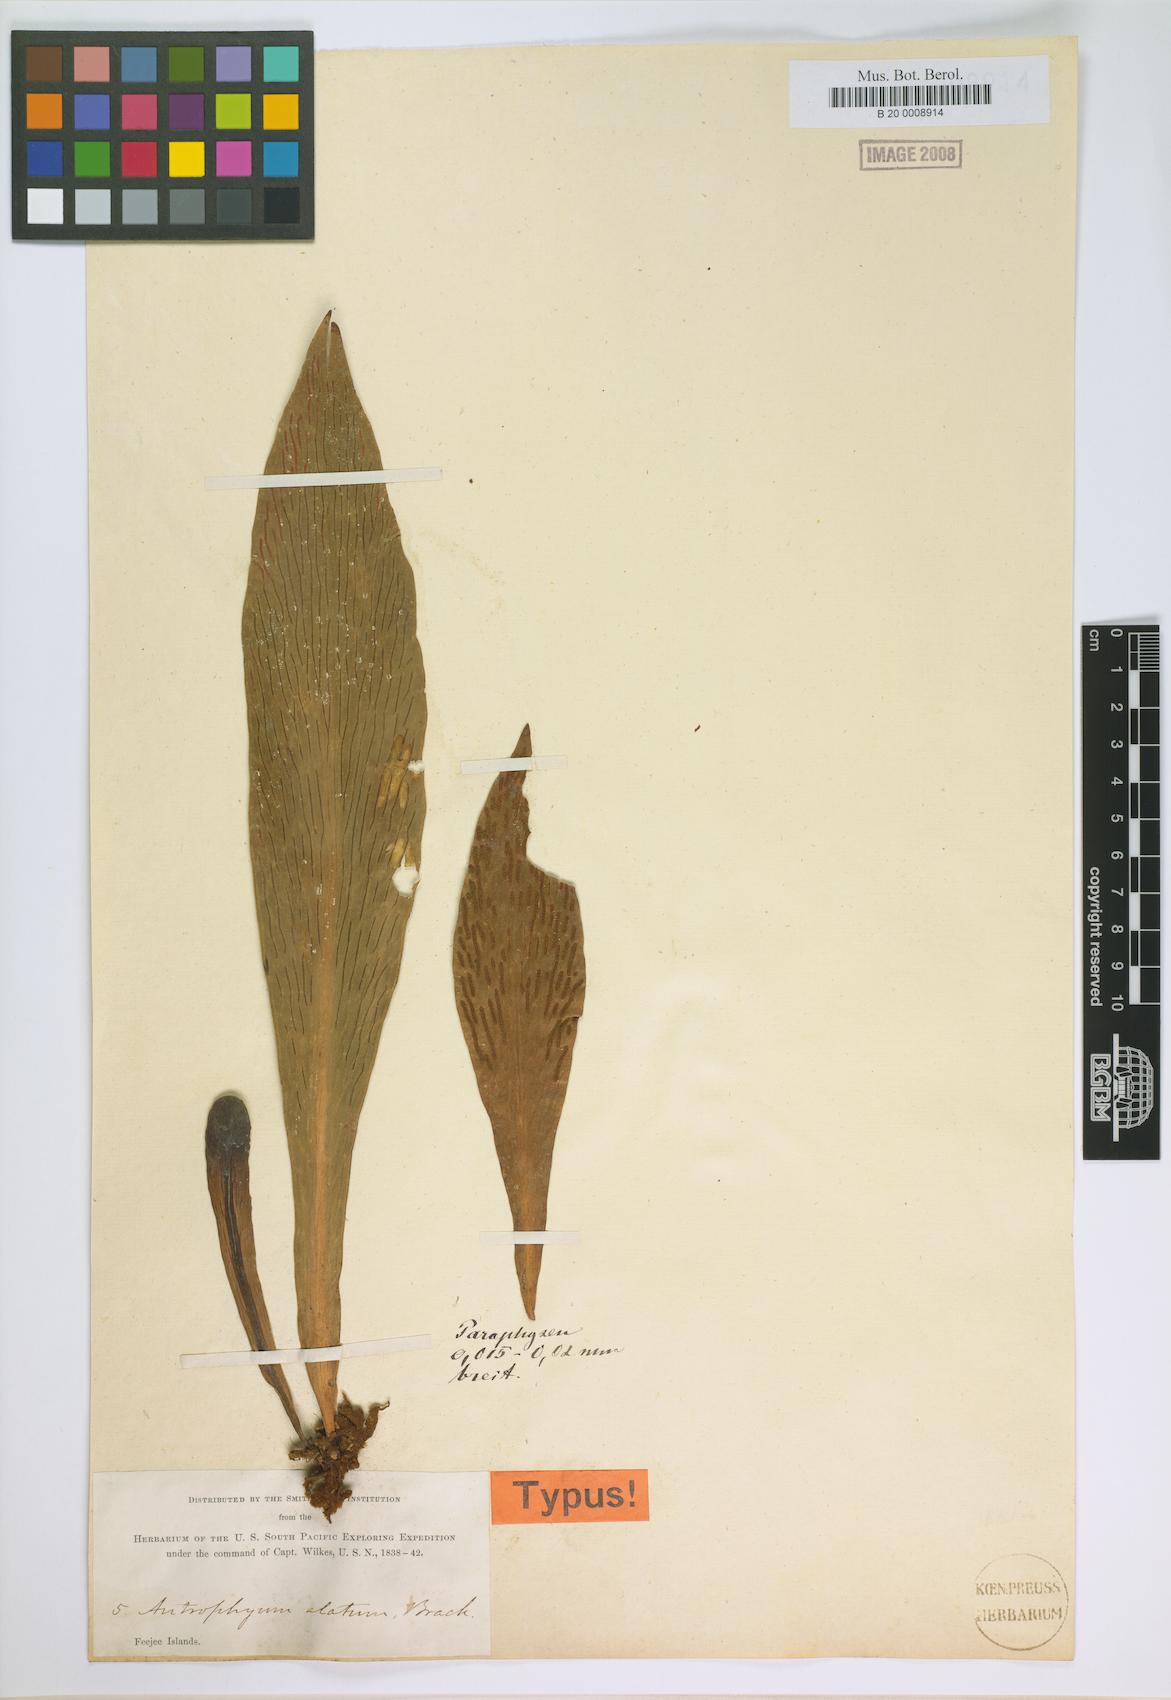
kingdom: Plantae
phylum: Tracheophyta
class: Polypodiopsida
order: Polypodiales
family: Pteridaceae
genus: Antrophyum
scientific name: Antrophyum callifolium
